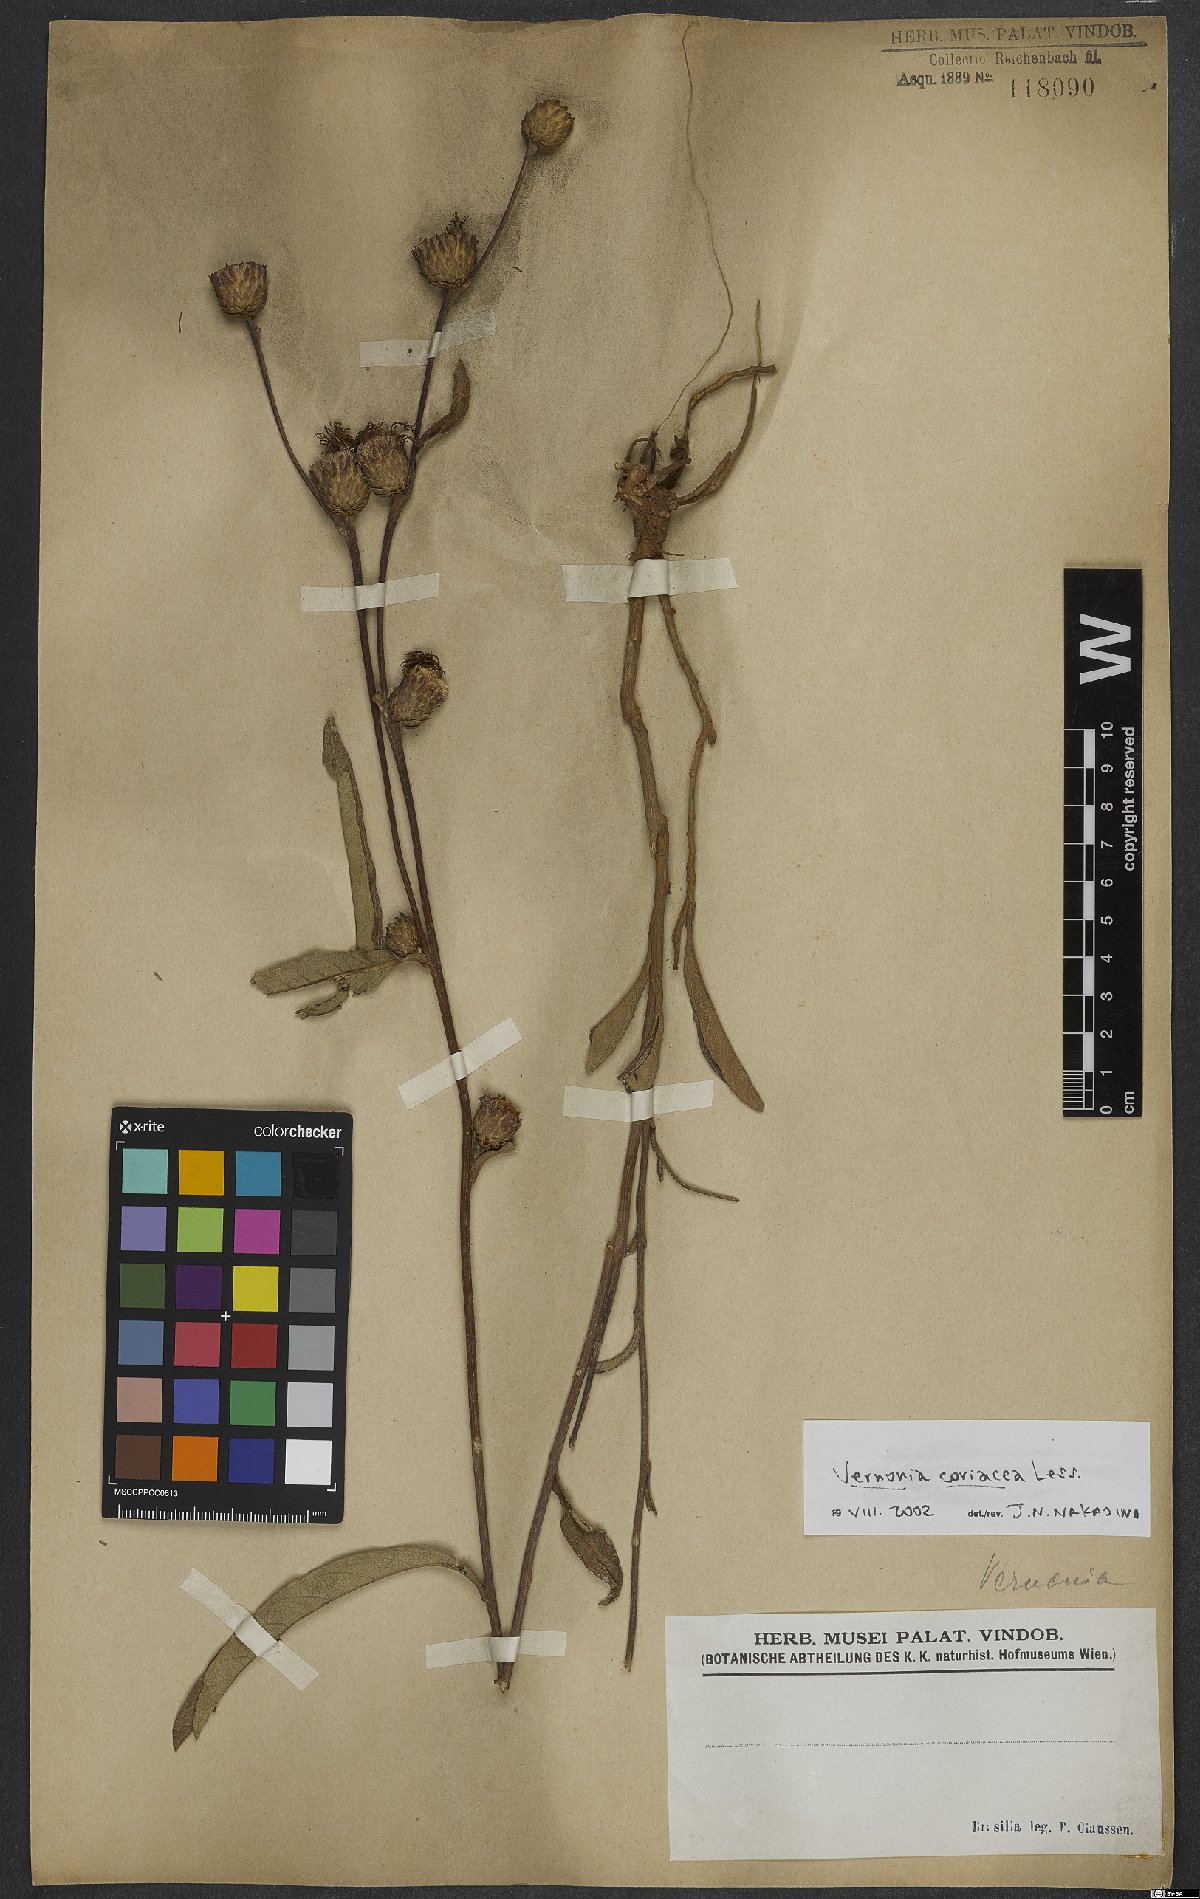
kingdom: Plantae
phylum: Tracheophyta
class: Magnoliopsida
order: Asterales
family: Asteraceae
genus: Lessingianthus
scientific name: Lessingianthus coriaceus
